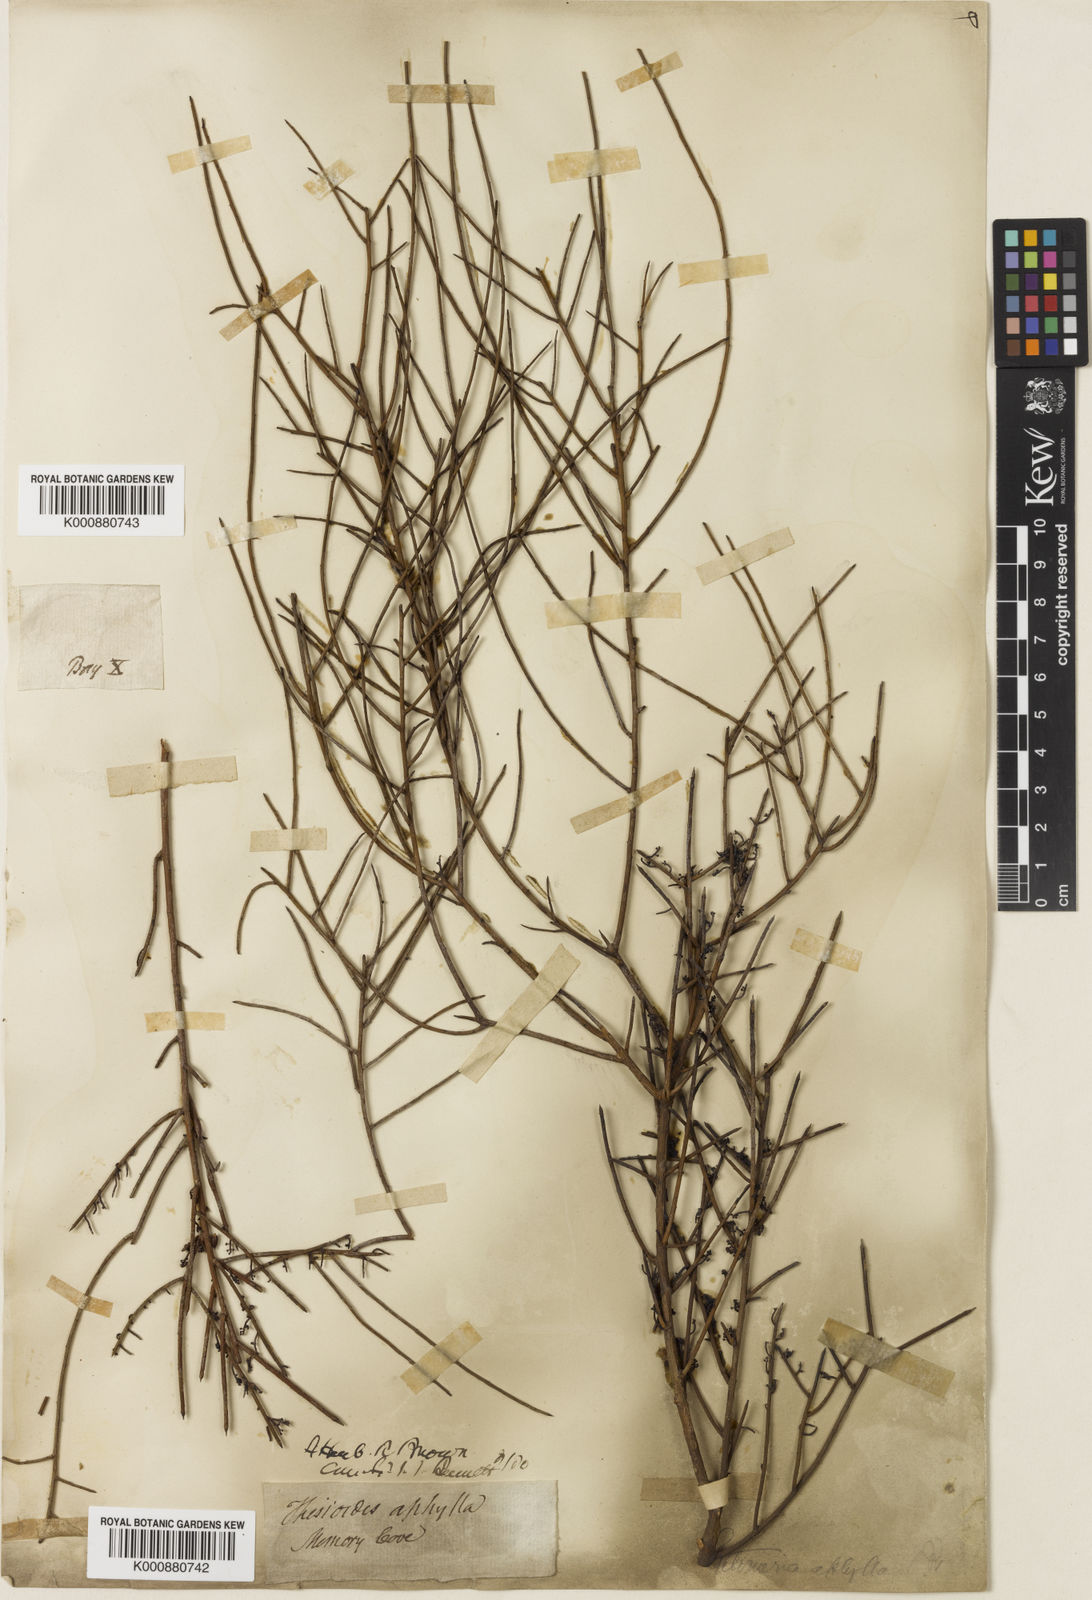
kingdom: Plantae
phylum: Tracheophyta
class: Magnoliopsida
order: Santalales
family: Amphorogynaceae
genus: Leptomeria
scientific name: Leptomeria aphylla
